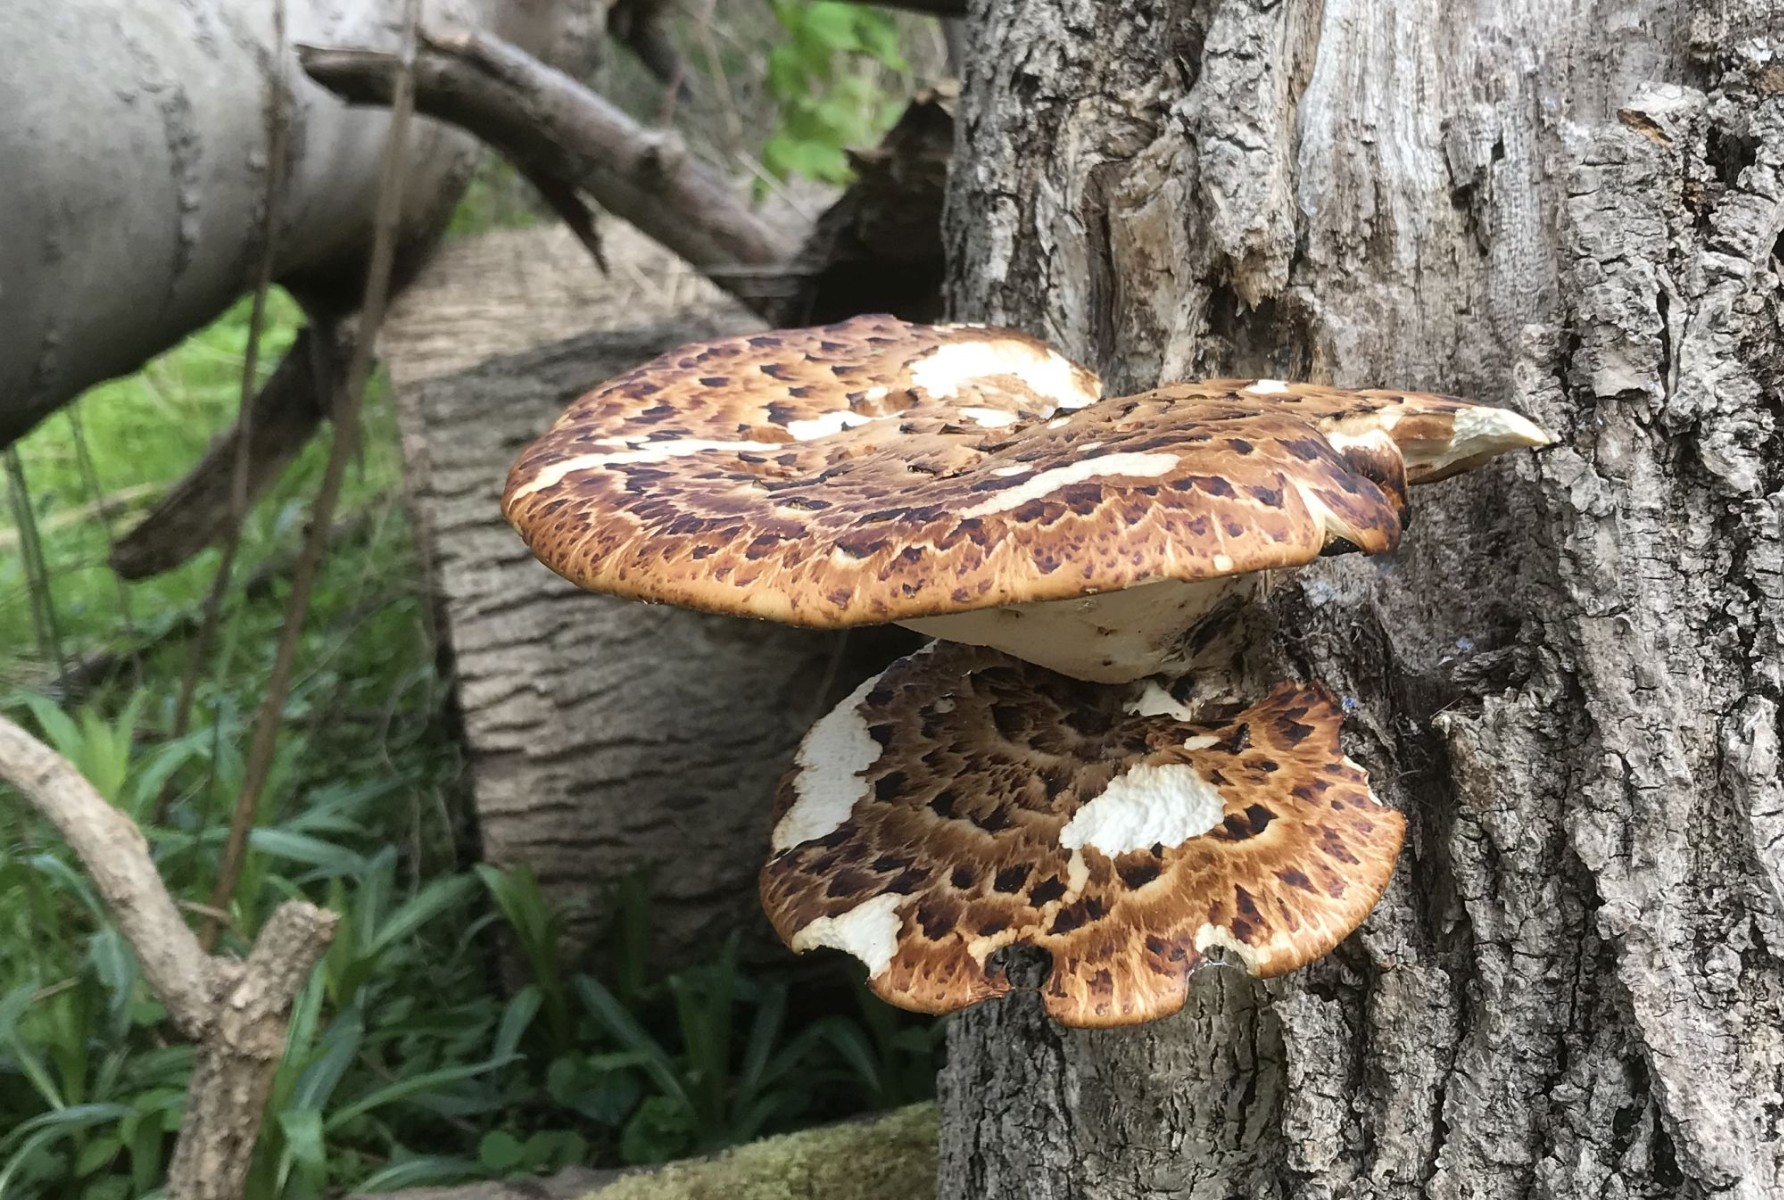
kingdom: Fungi
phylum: Basidiomycota
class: Agaricomycetes
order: Polyporales
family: Polyporaceae
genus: Cerioporus
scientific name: Cerioporus squamosus
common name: skællet stilkporesvamp
